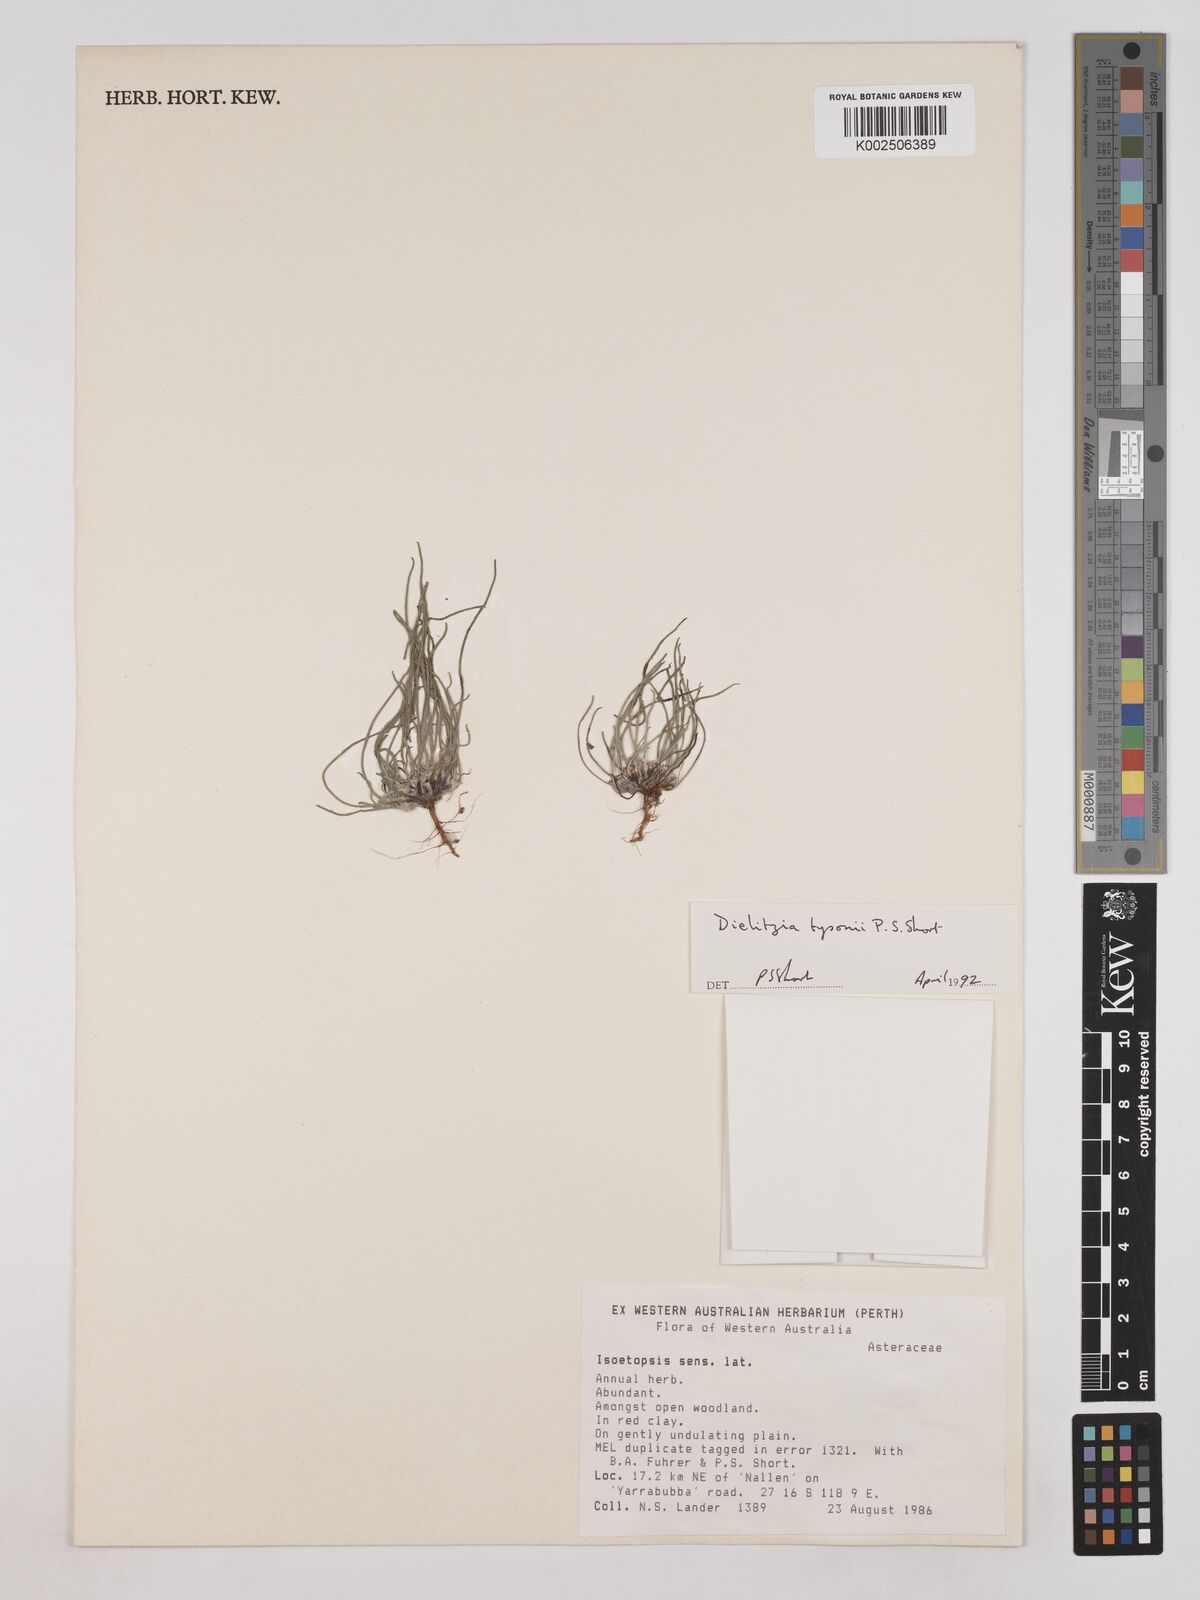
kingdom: Plantae
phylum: Tracheophyta
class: Magnoliopsida
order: Asterales
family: Asteraceae
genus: Dielitzia
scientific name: Dielitzia tysonii
